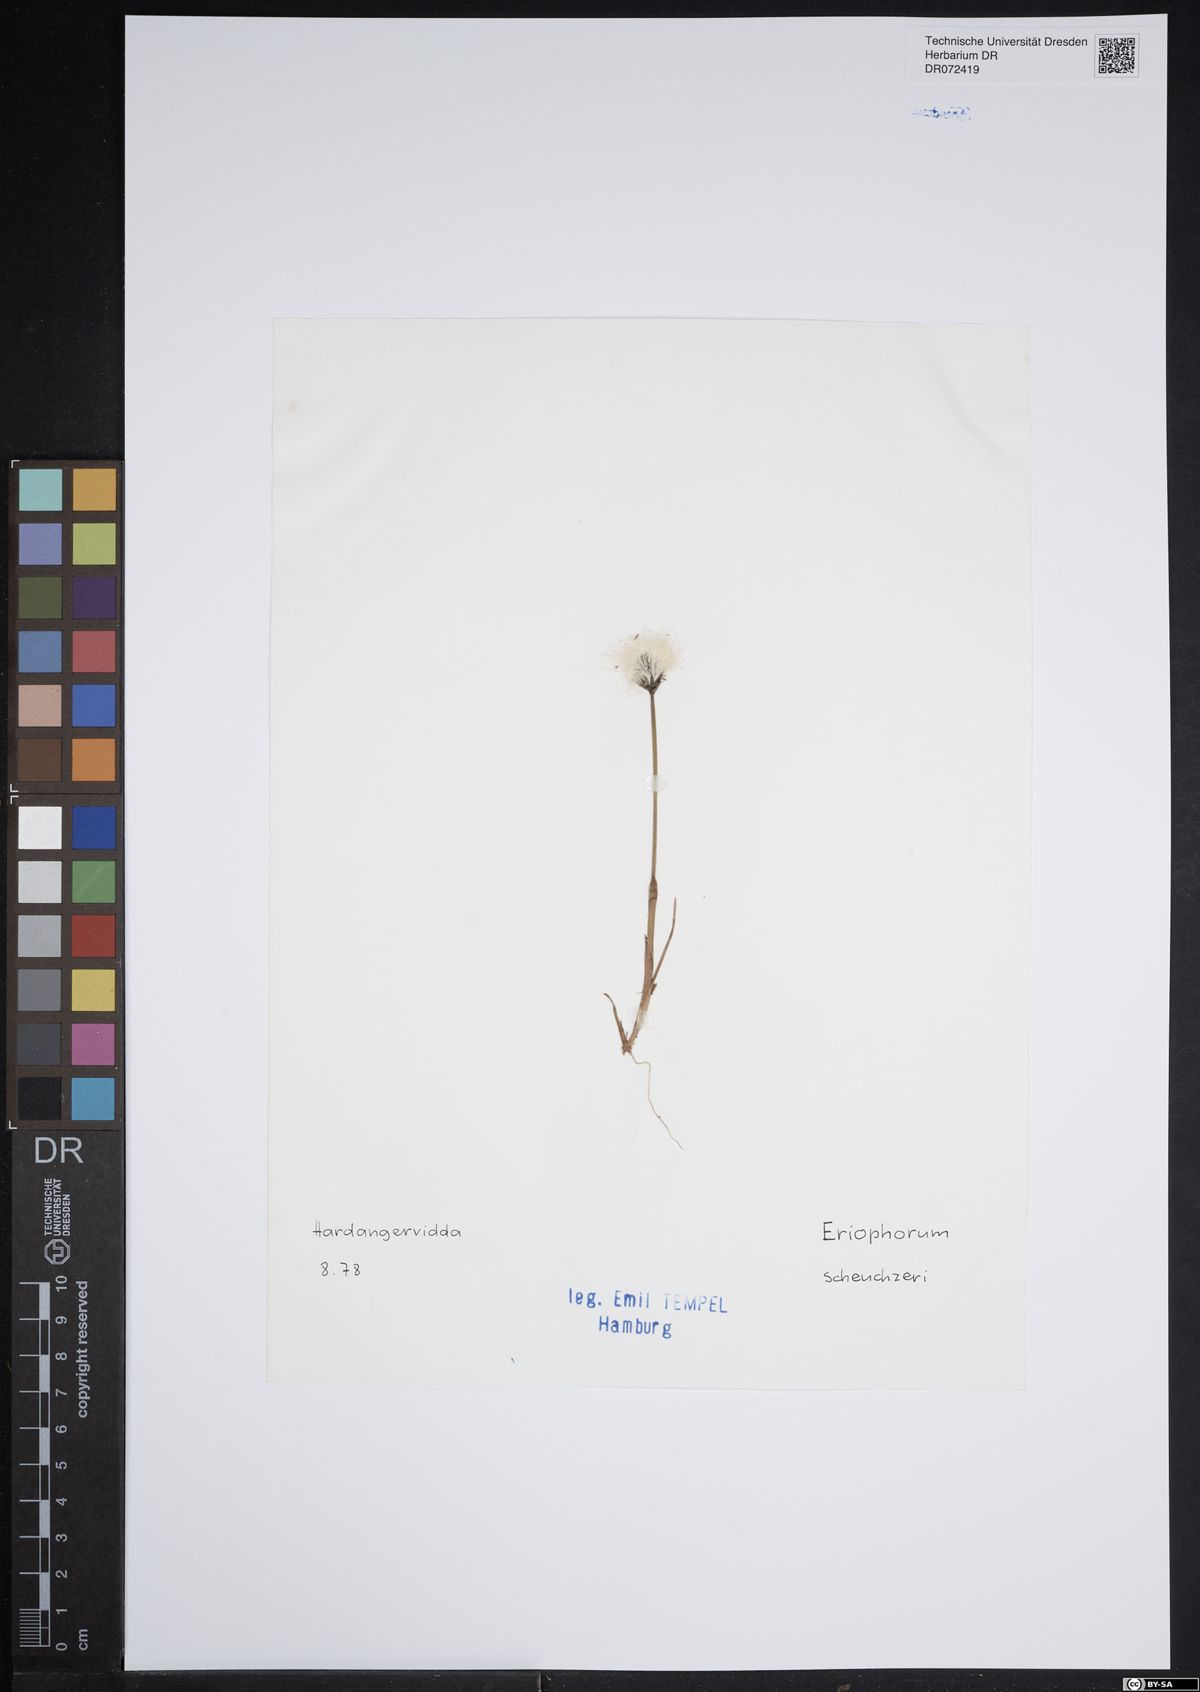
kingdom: Plantae
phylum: Tracheophyta
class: Liliopsida
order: Poales
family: Cyperaceae
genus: Eriophorum
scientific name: Eriophorum scheuchzeri
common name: Scheuchzer's cottongrass
